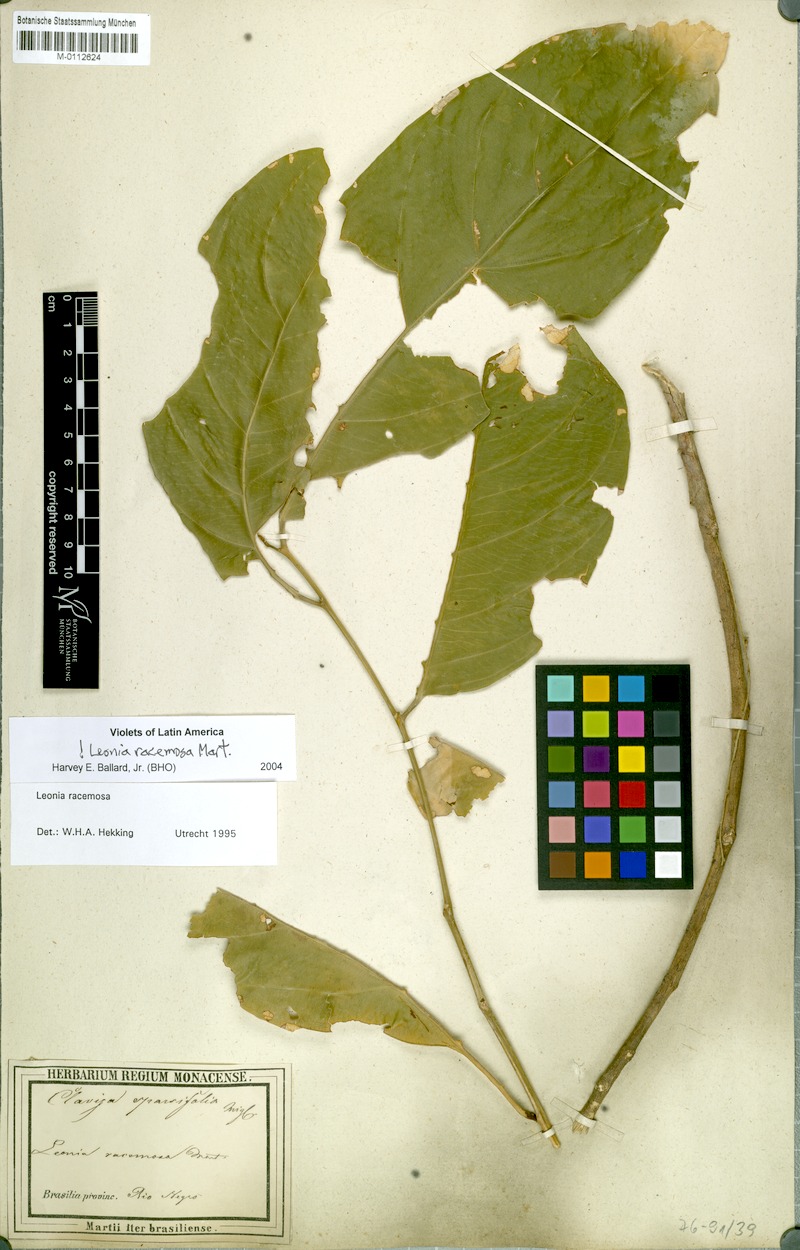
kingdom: Plantae
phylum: Tracheophyta
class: Magnoliopsida
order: Malpighiales
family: Violaceae
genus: Leonia
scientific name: Leonia racemosa
